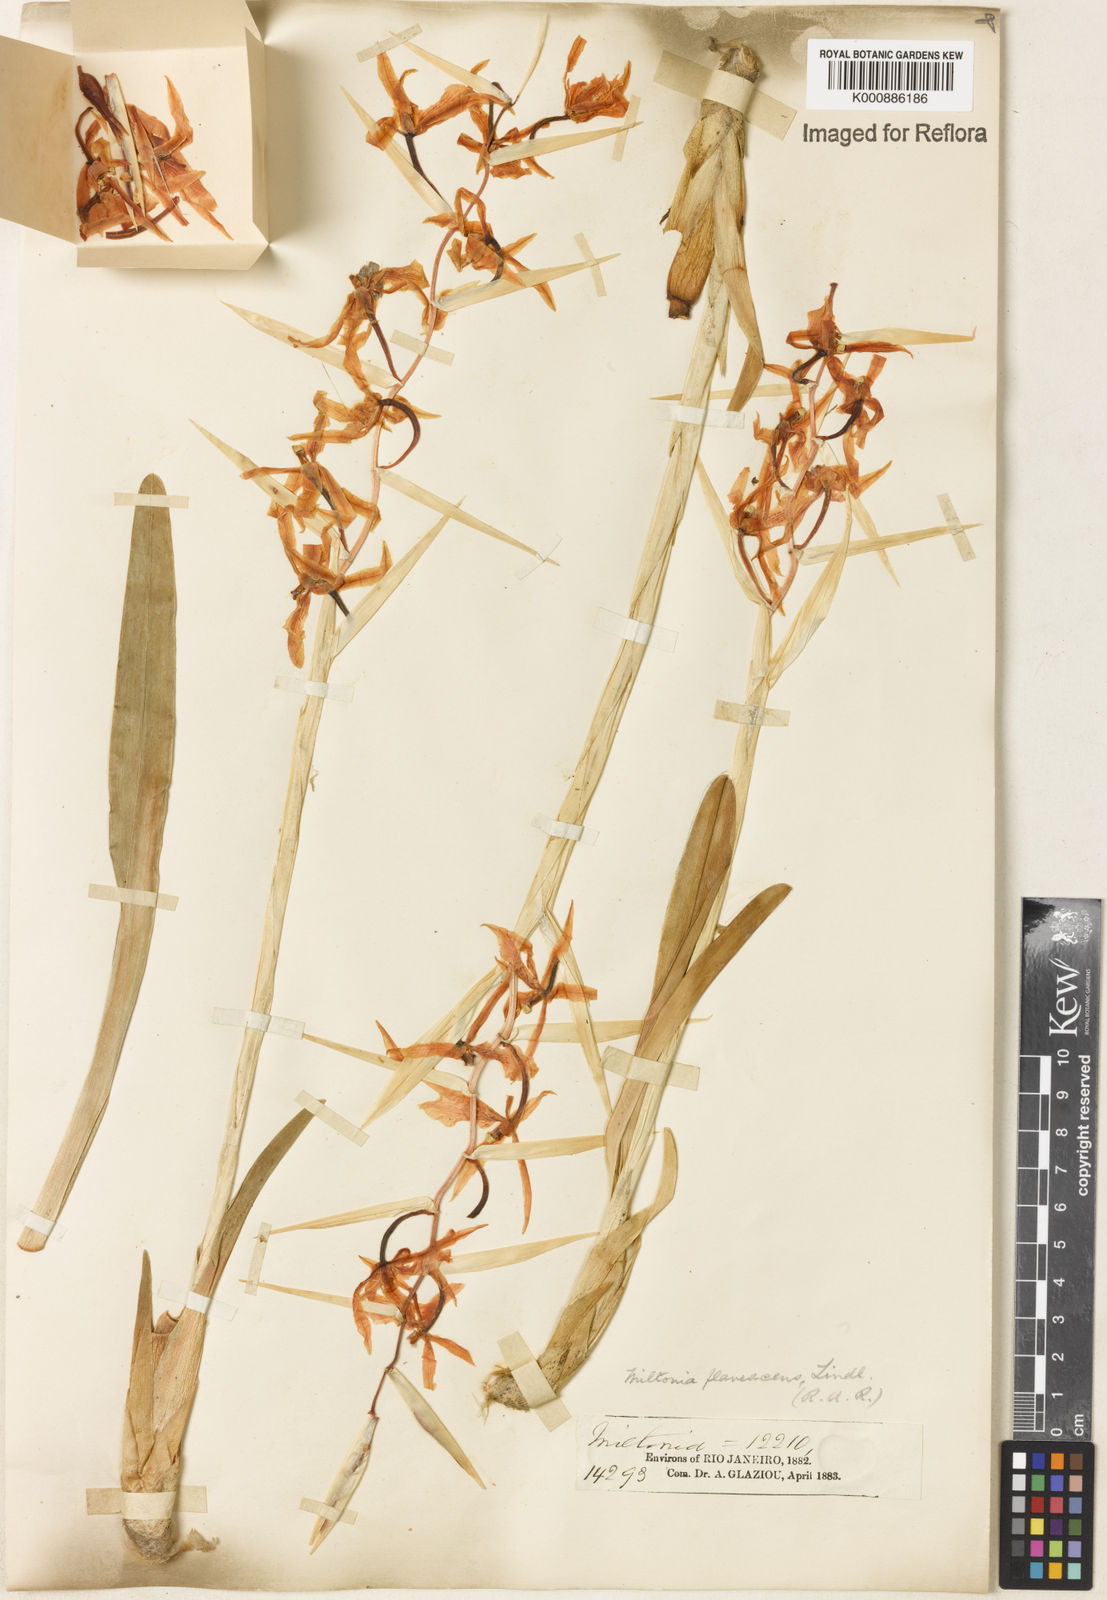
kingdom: Plantae
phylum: Tracheophyta
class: Liliopsida
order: Asparagales
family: Orchidaceae
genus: Miltonia
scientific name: Miltonia flavescens
